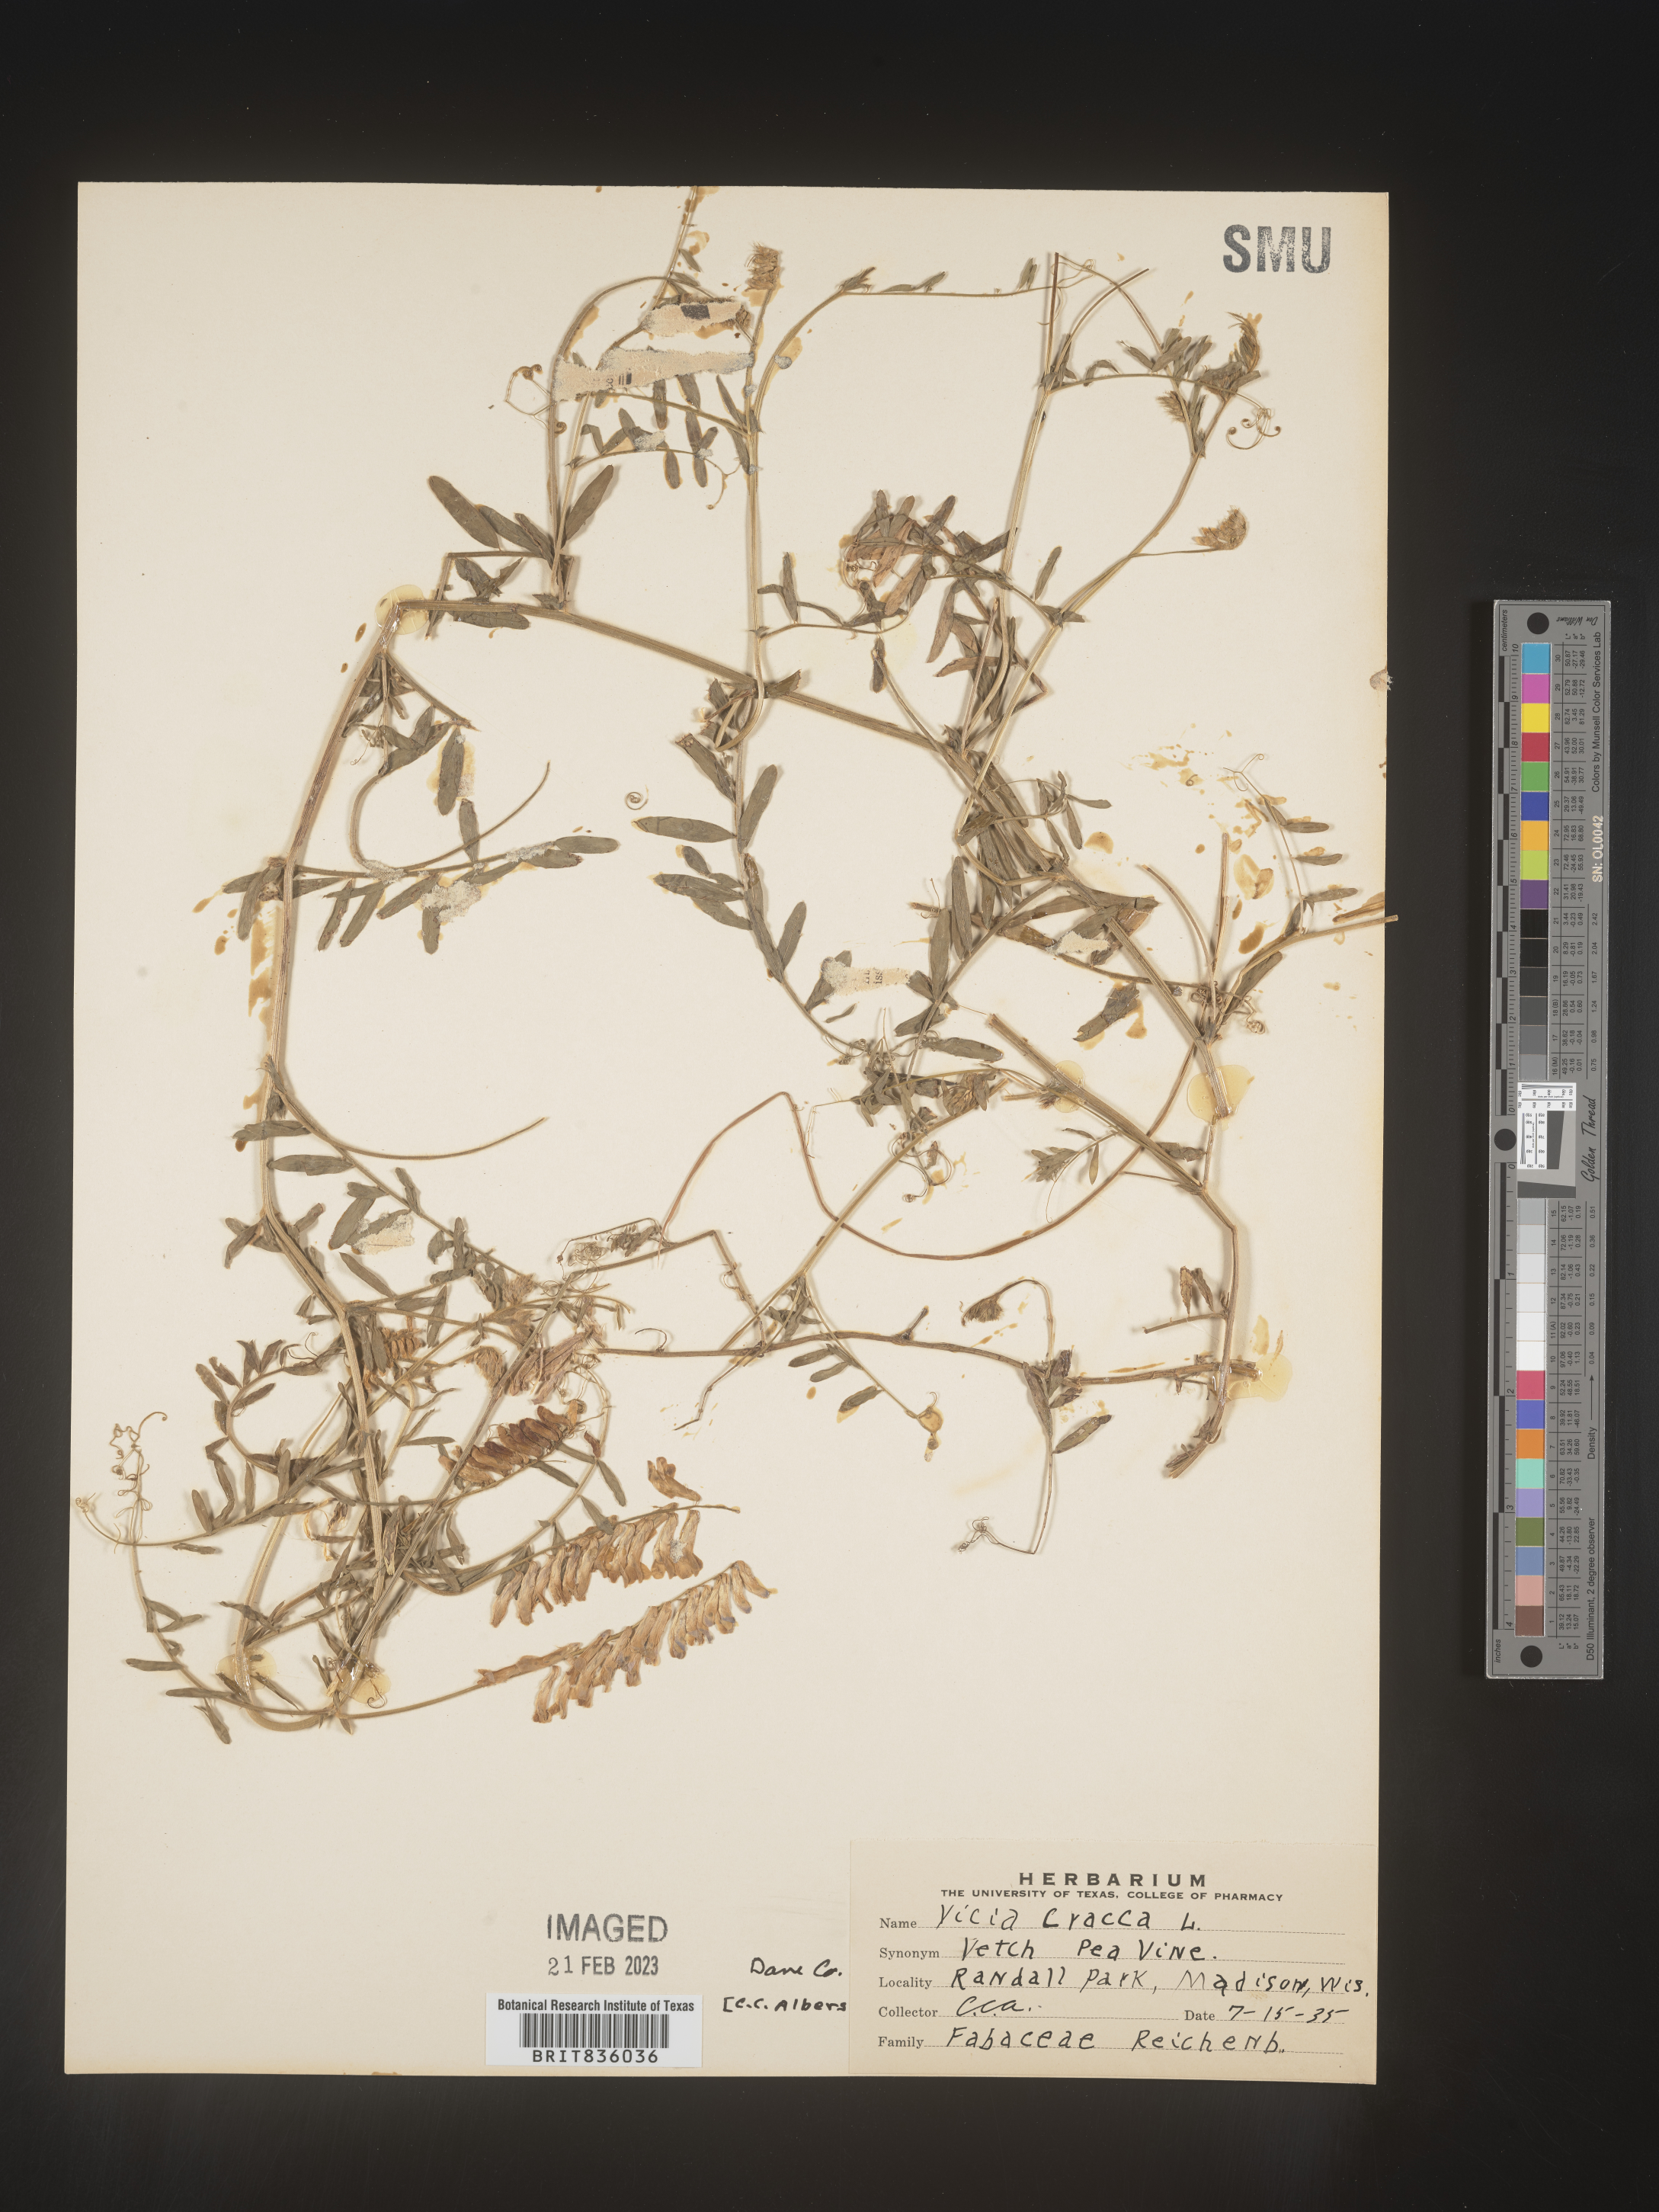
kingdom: Plantae
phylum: Tracheophyta
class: Magnoliopsida
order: Fabales
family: Fabaceae
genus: Vicia
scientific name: Vicia tetrasperma
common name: Smooth tare
